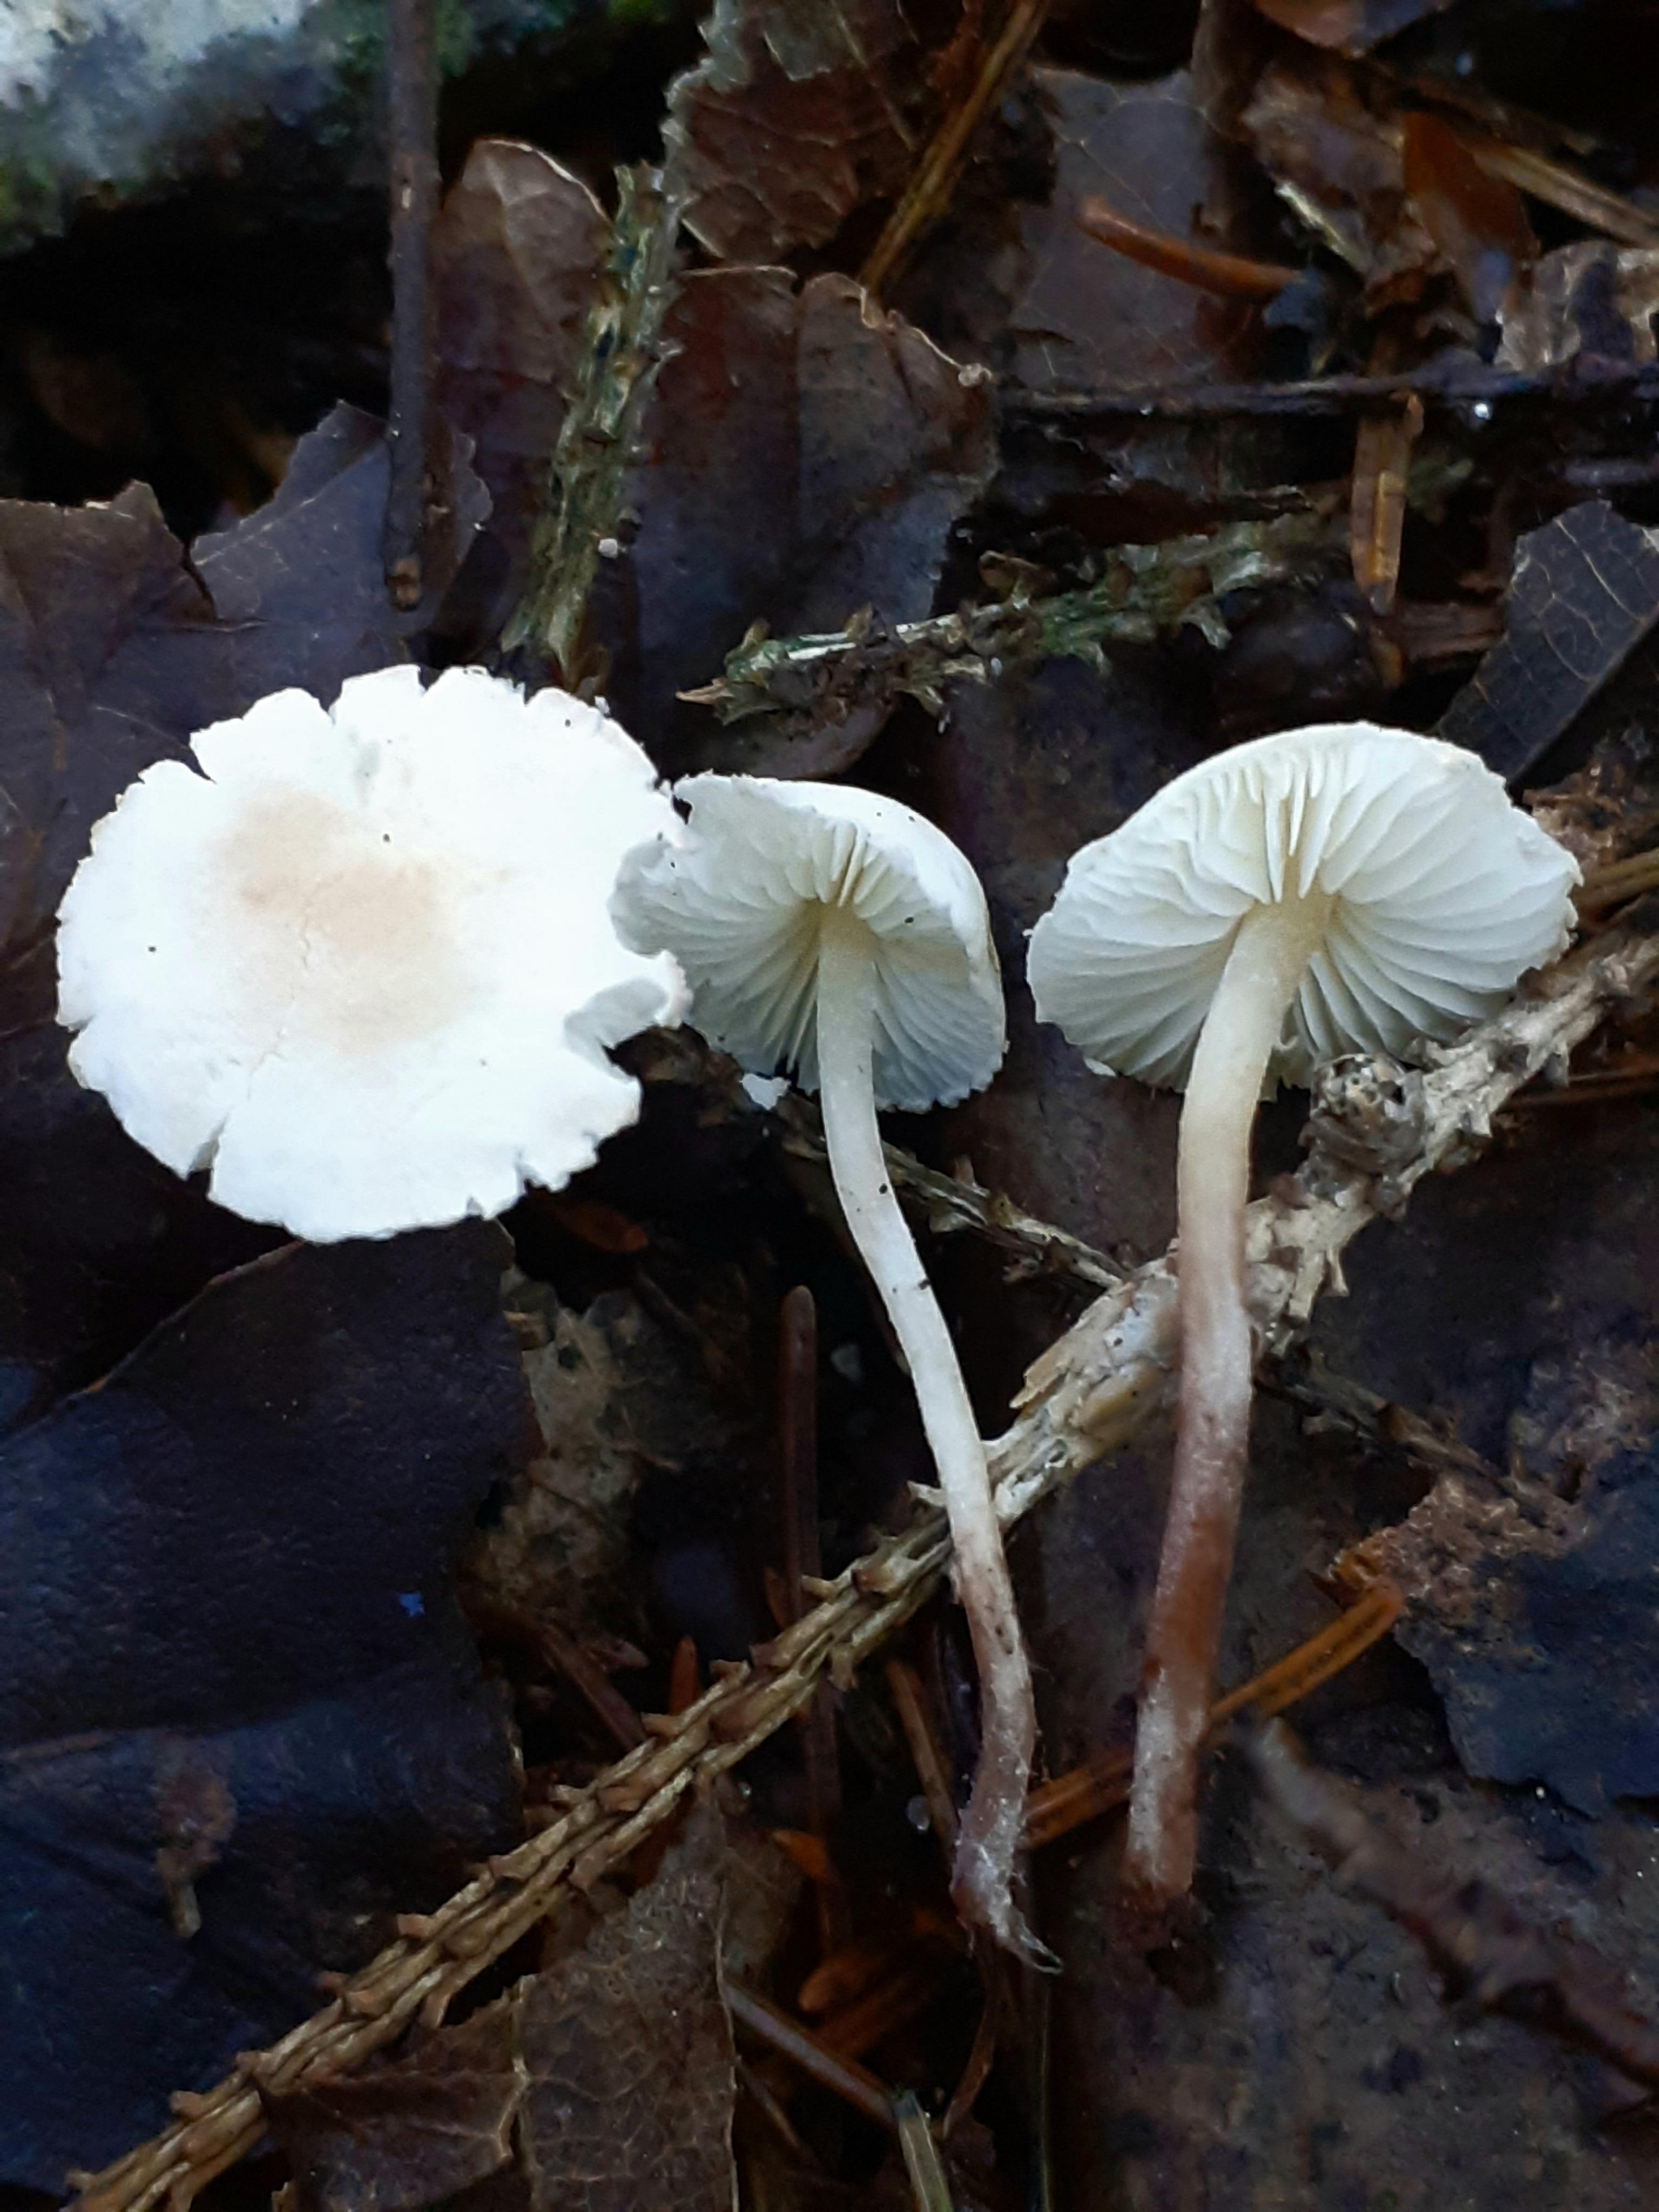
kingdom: Fungi
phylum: Basidiomycota
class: Agaricomycetes
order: Agaricales
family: Agaricaceae
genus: Cystolepiota
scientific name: Cystolepiota seminuda
